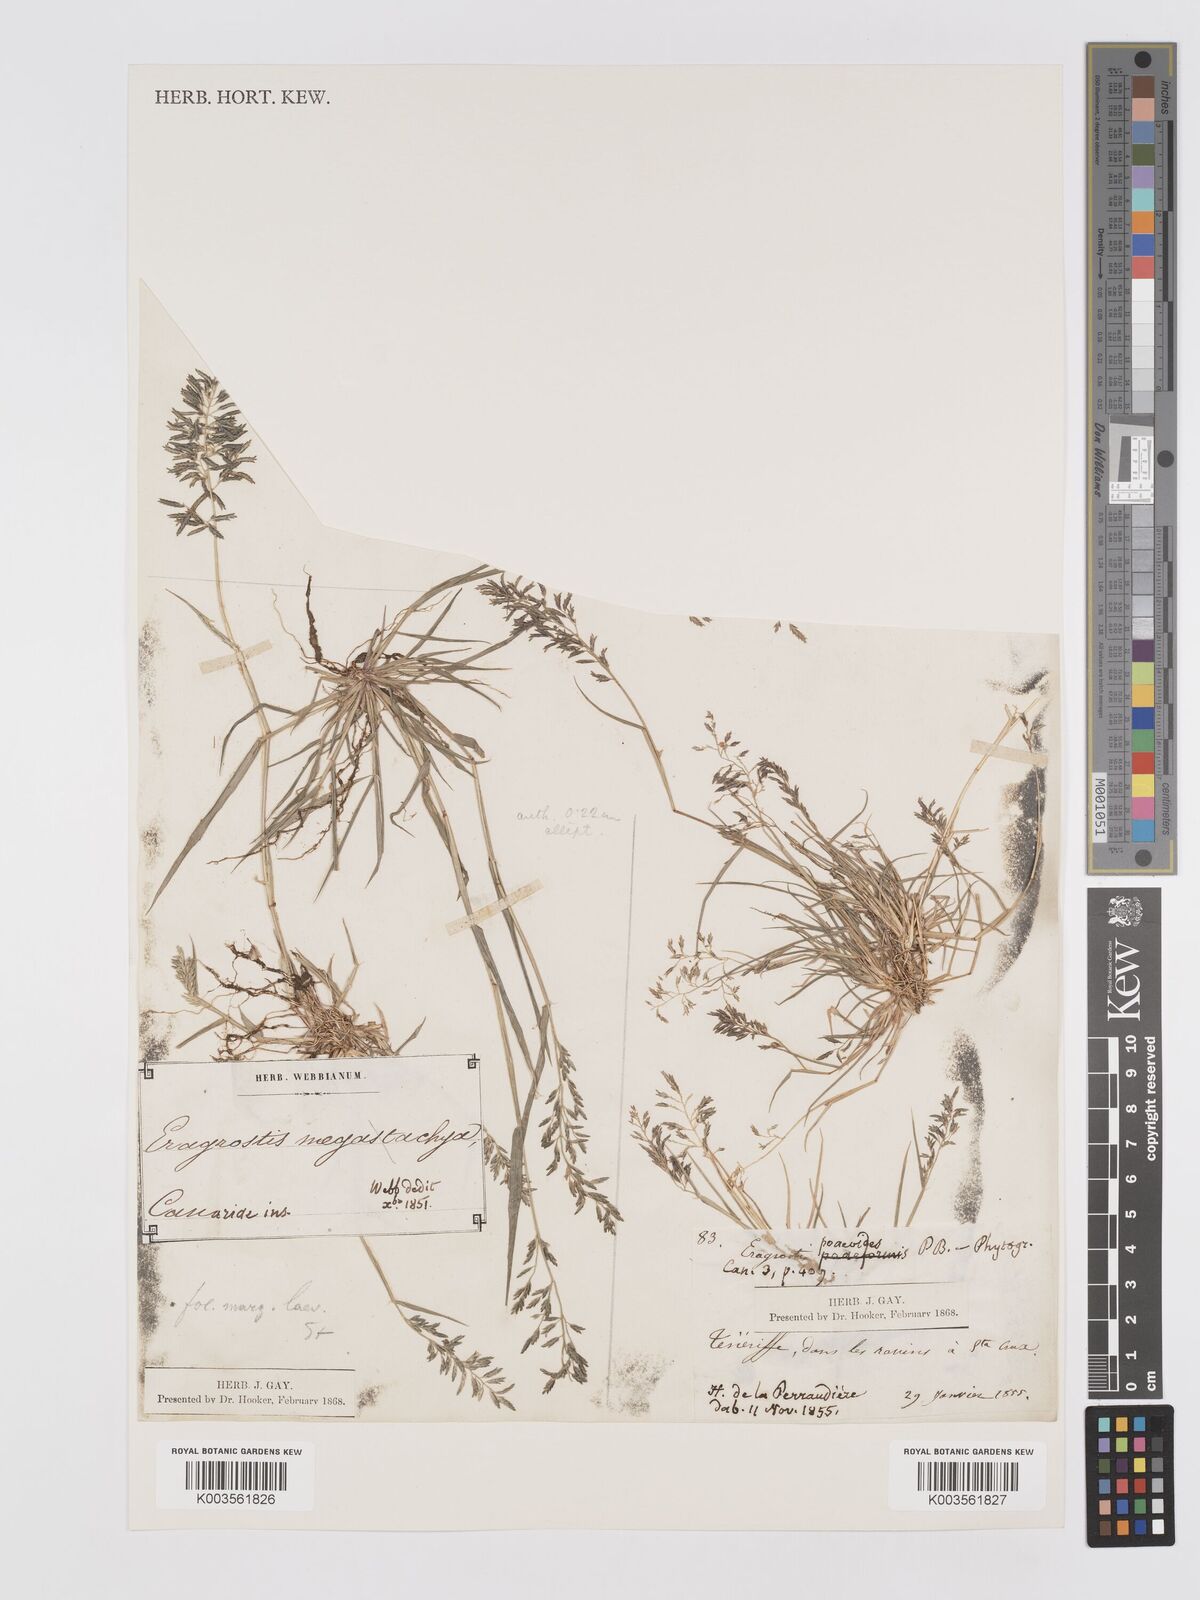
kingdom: Plantae
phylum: Tracheophyta
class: Liliopsida
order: Poales
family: Poaceae
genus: Eragrostis
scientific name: Eragrostis barrelieri
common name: Mediterranean lovegrass
